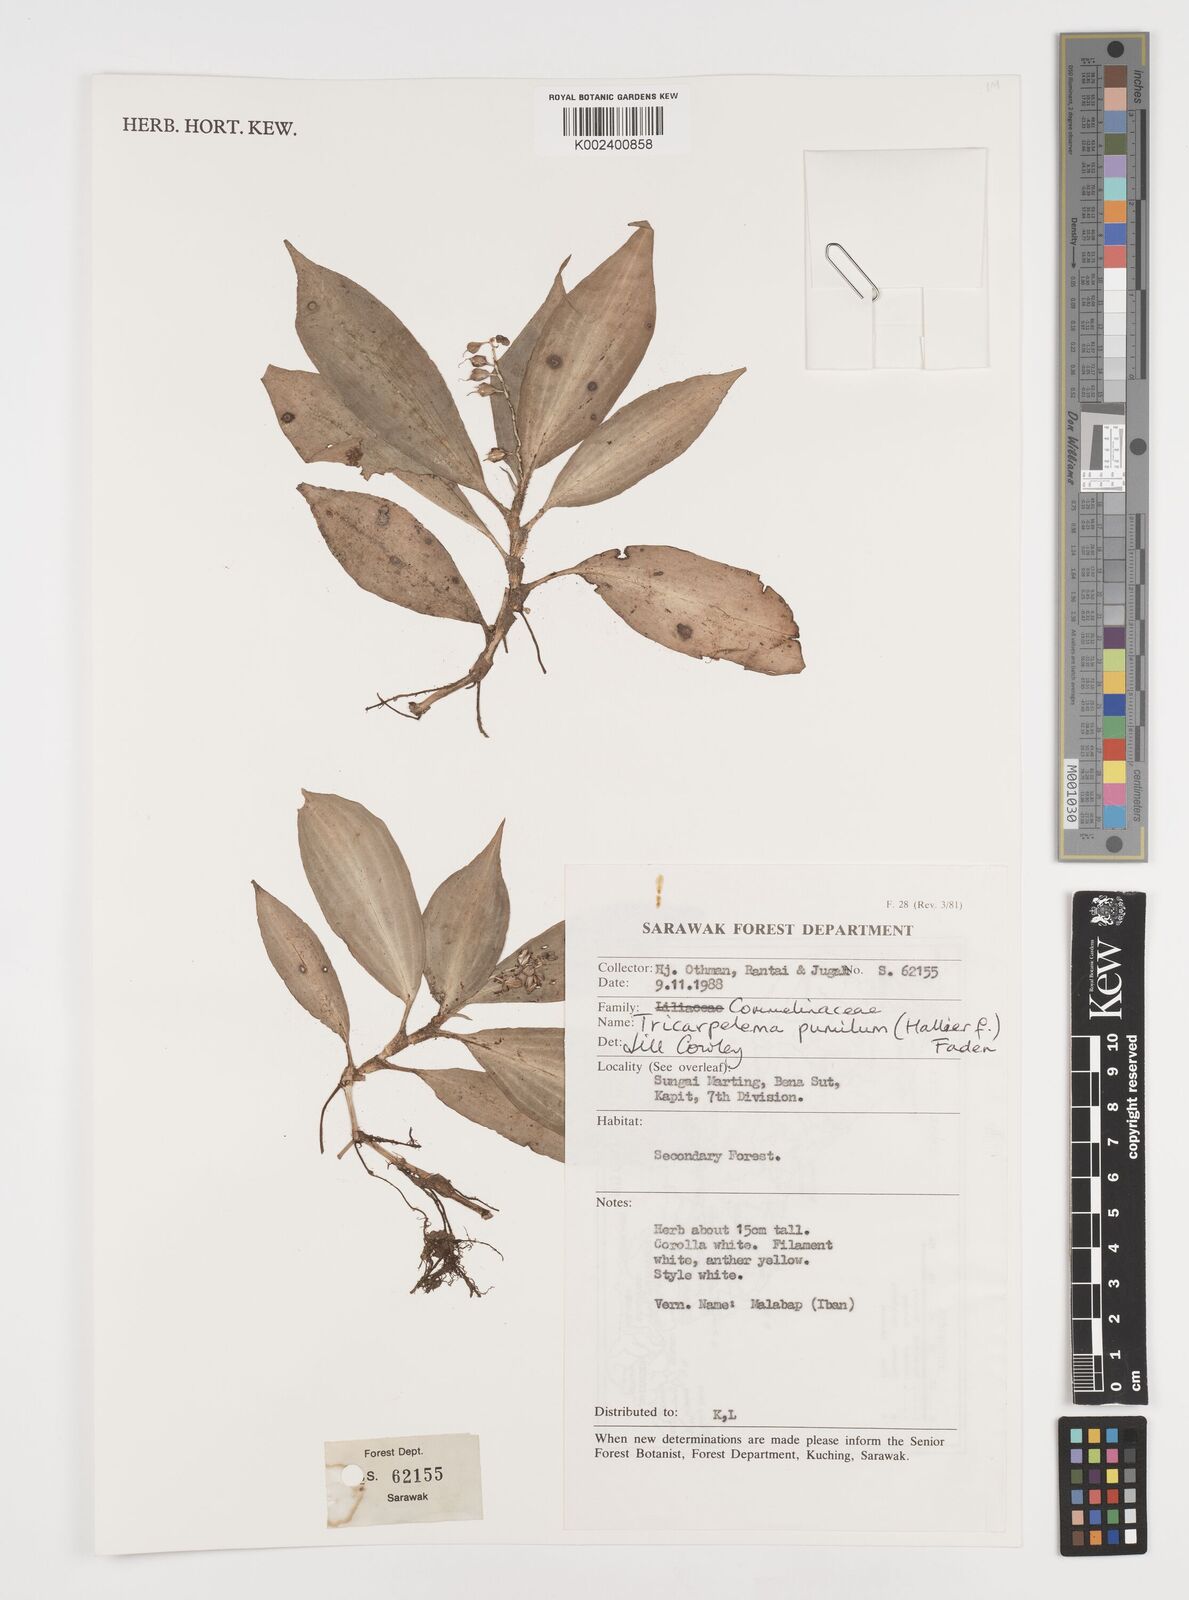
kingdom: Plantae
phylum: Tracheophyta
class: Liliopsida
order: Commelinales
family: Commelinaceae
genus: Tricarpelema
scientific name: Tricarpelema pumilum
